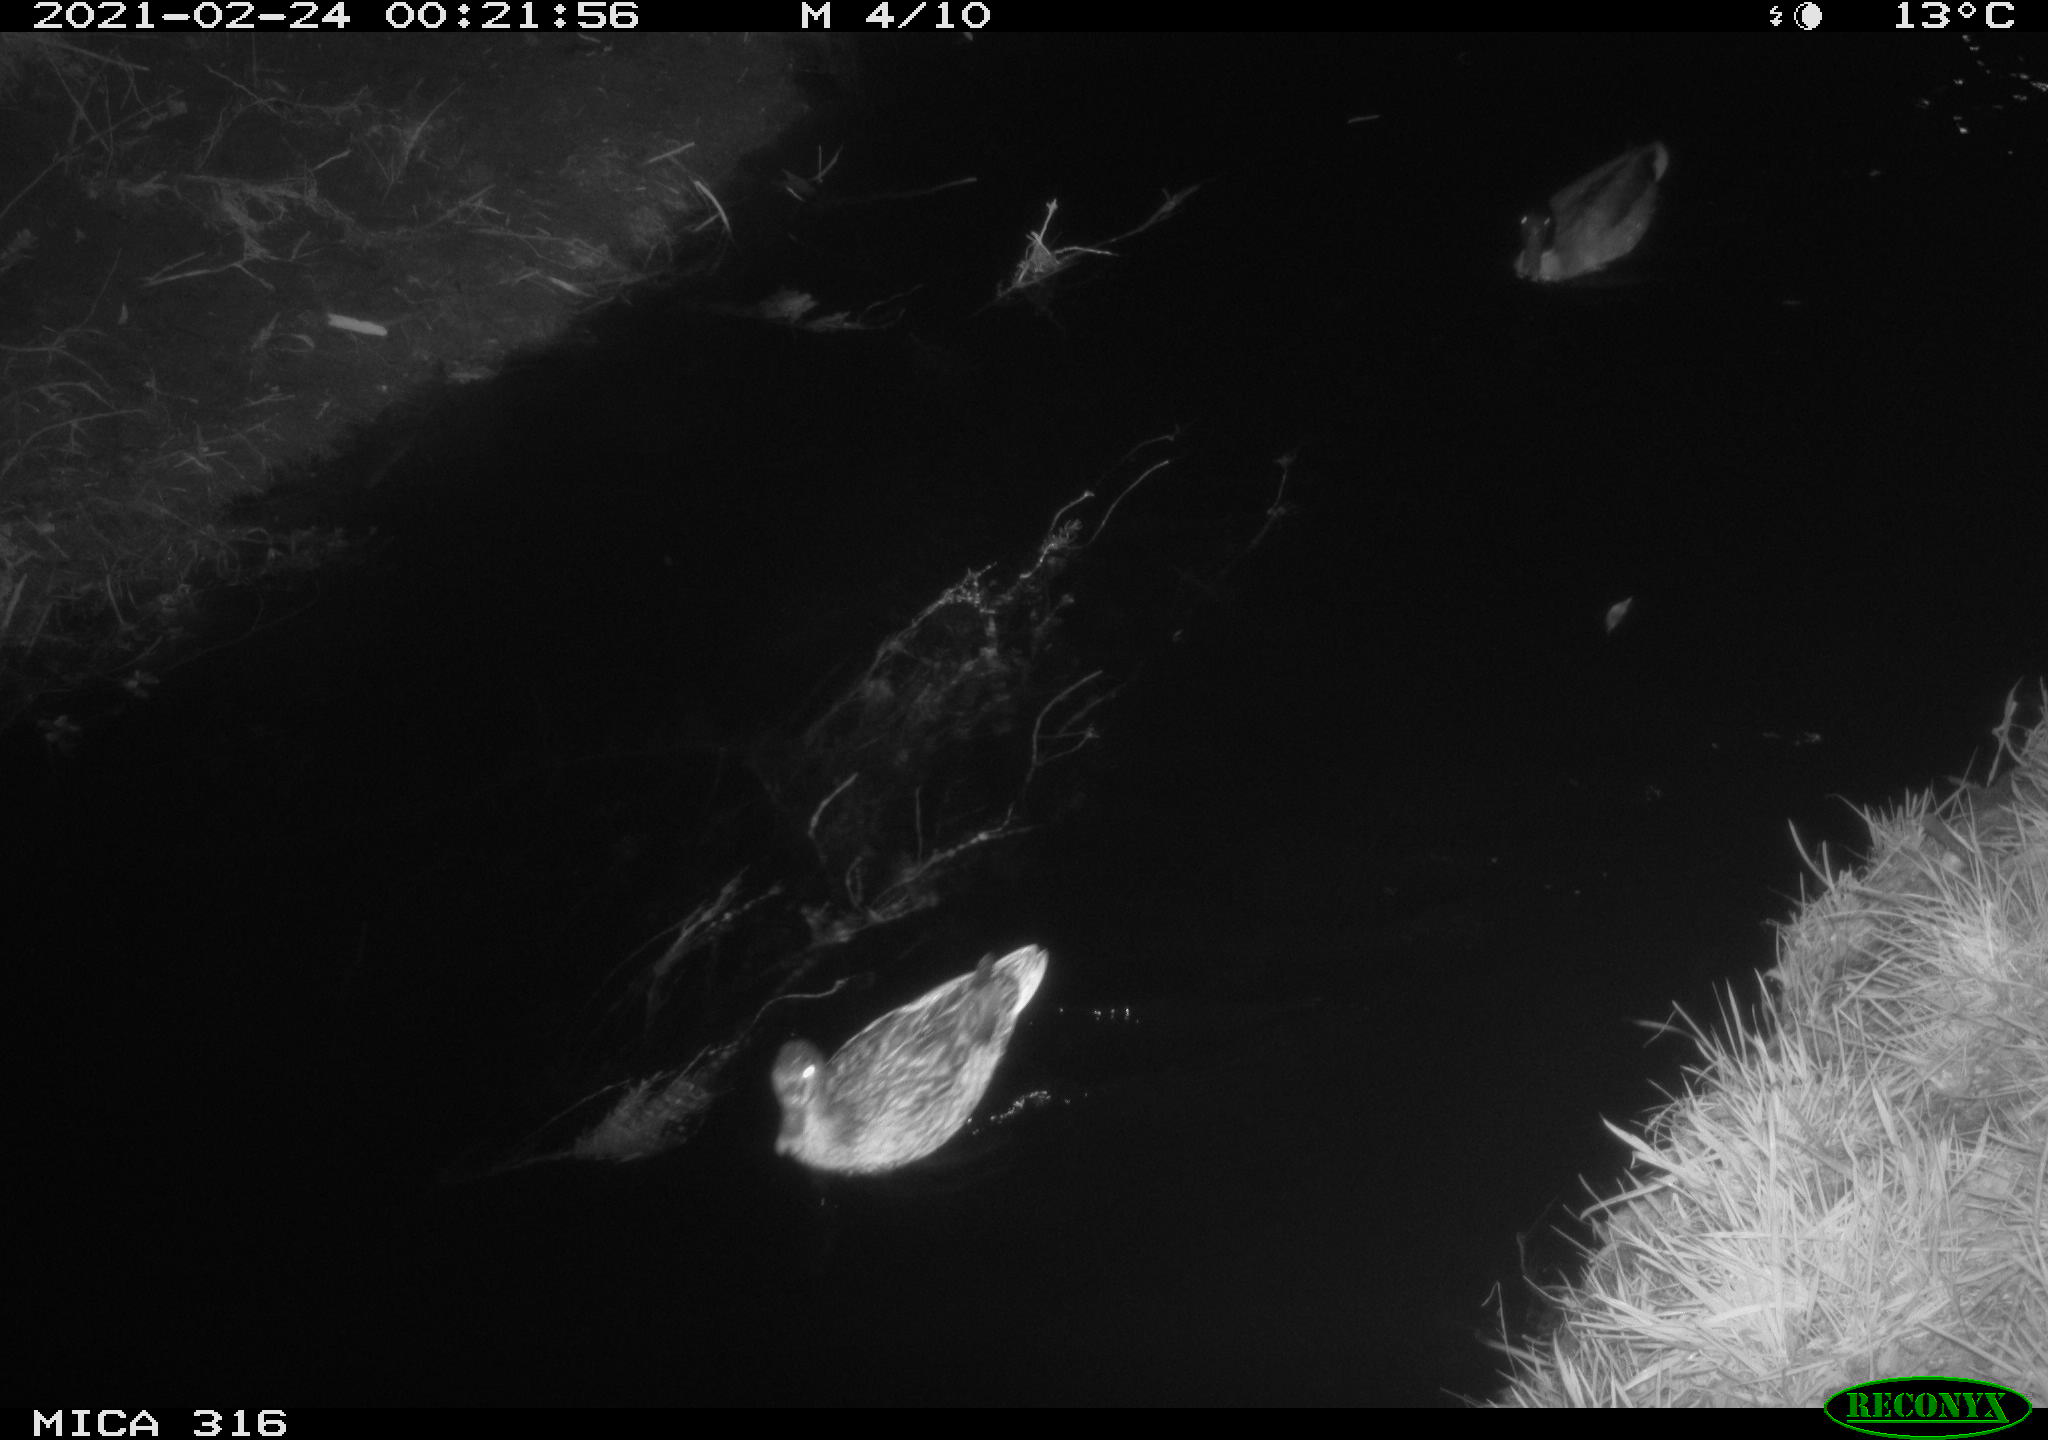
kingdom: Animalia
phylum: Chordata
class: Aves
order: Anseriformes
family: Anatidae
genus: Mareca
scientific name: Mareca strepera
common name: Gadwall
